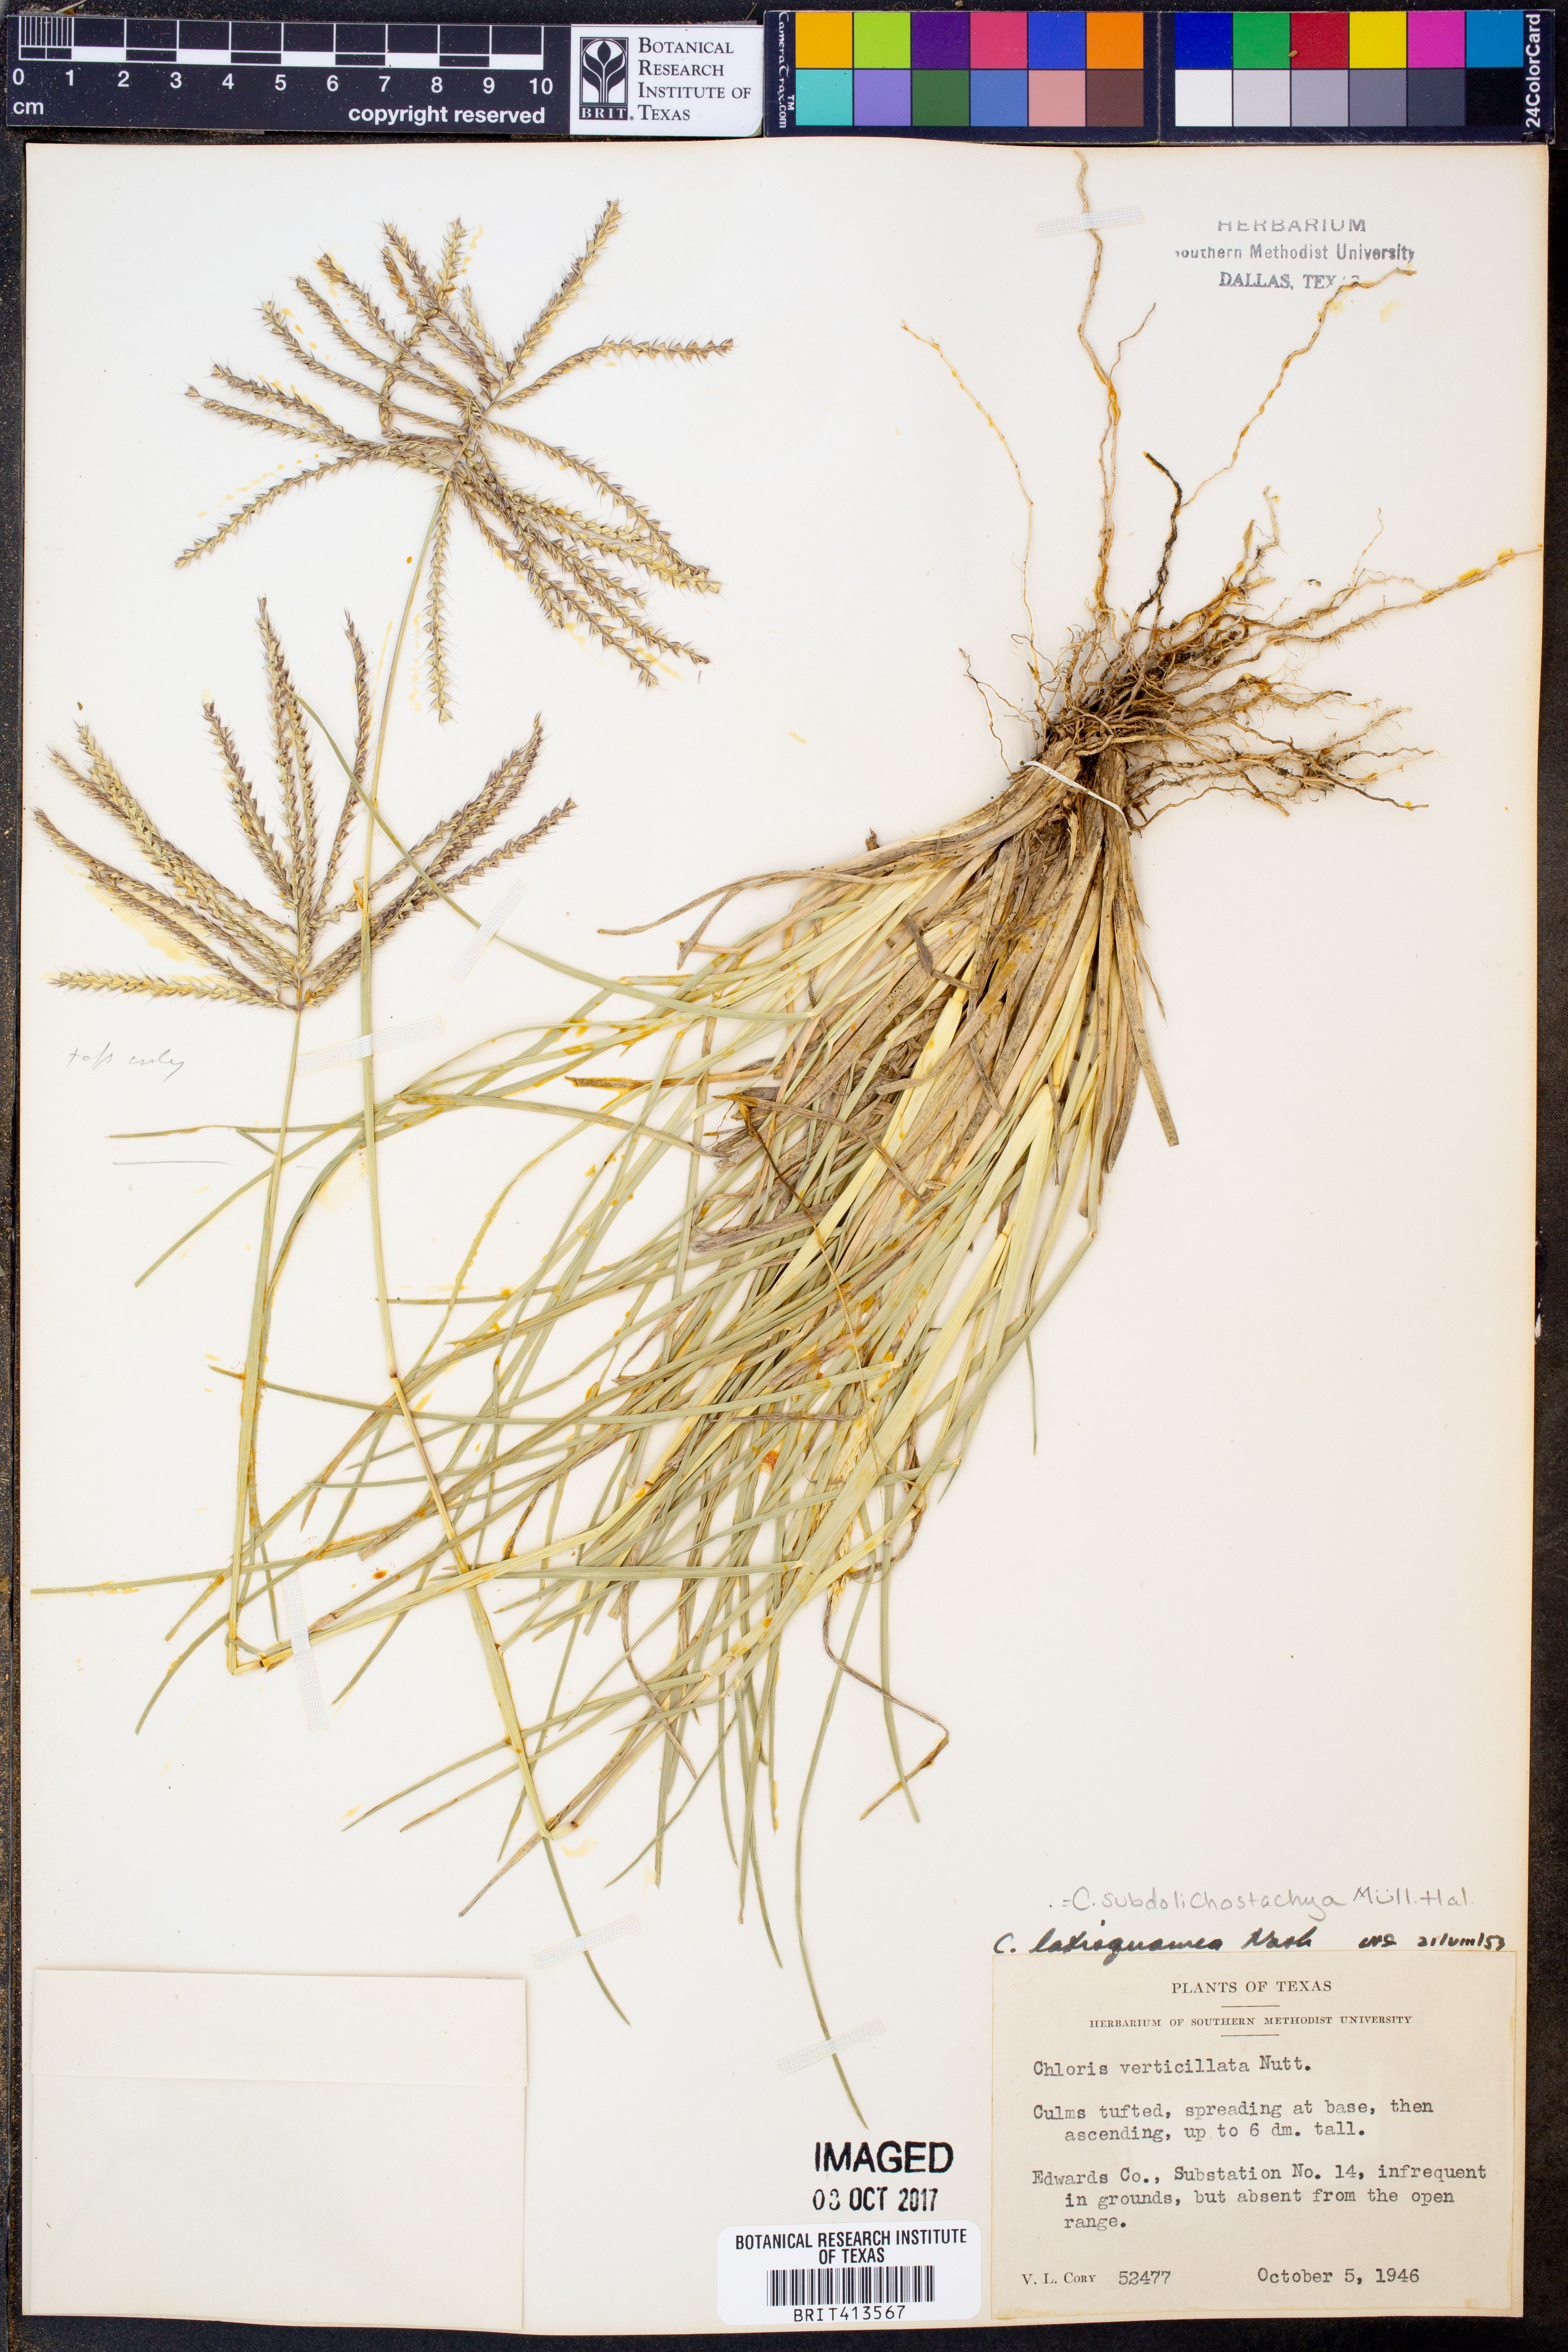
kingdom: Plantae
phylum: Tracheophyta
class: Liliopsida
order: Poales
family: Poaceae
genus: Chloris
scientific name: Chloris verticillata
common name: Tumble windmill grass
